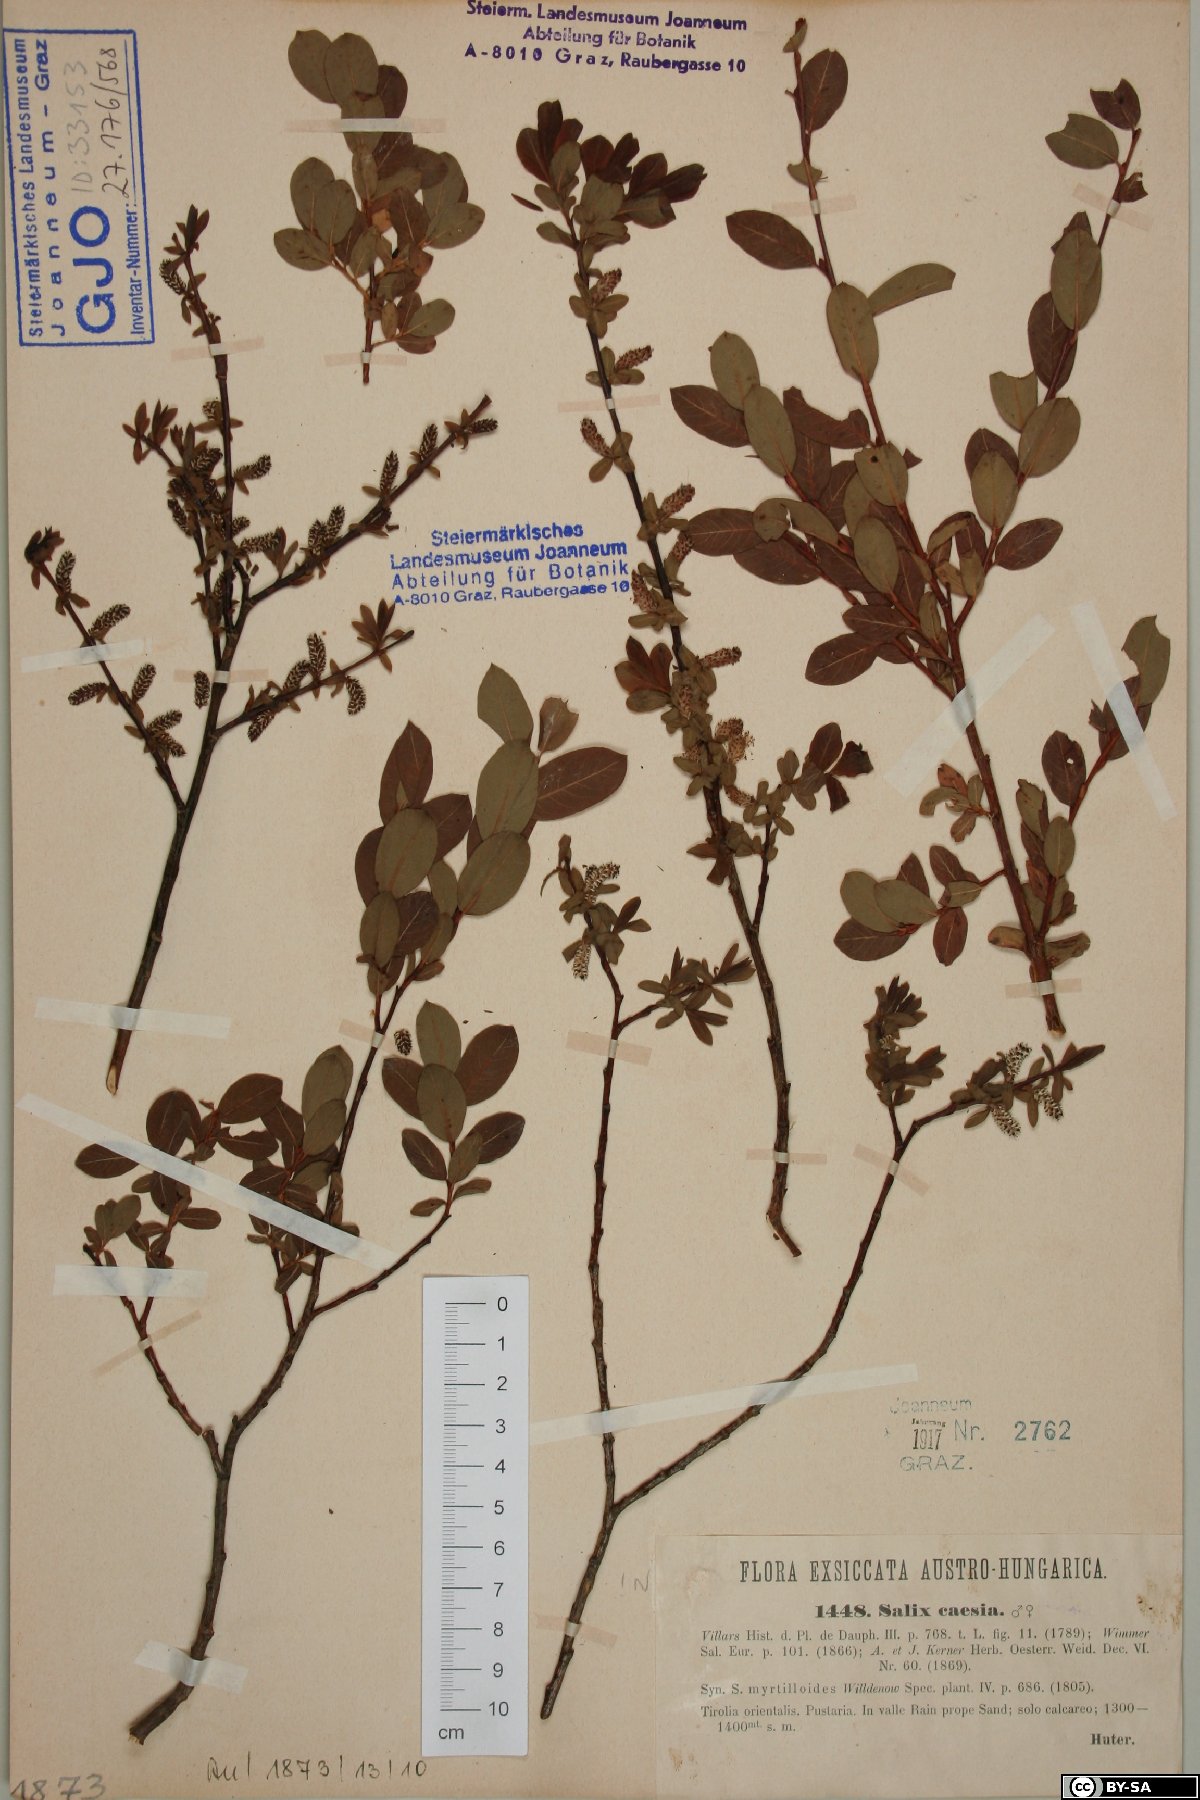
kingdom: Plantae
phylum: Tracheophyta
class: Magnoliopsida
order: Malpighiales
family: Salicaceae
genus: Salix
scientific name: Salix caesia
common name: Blue willow
